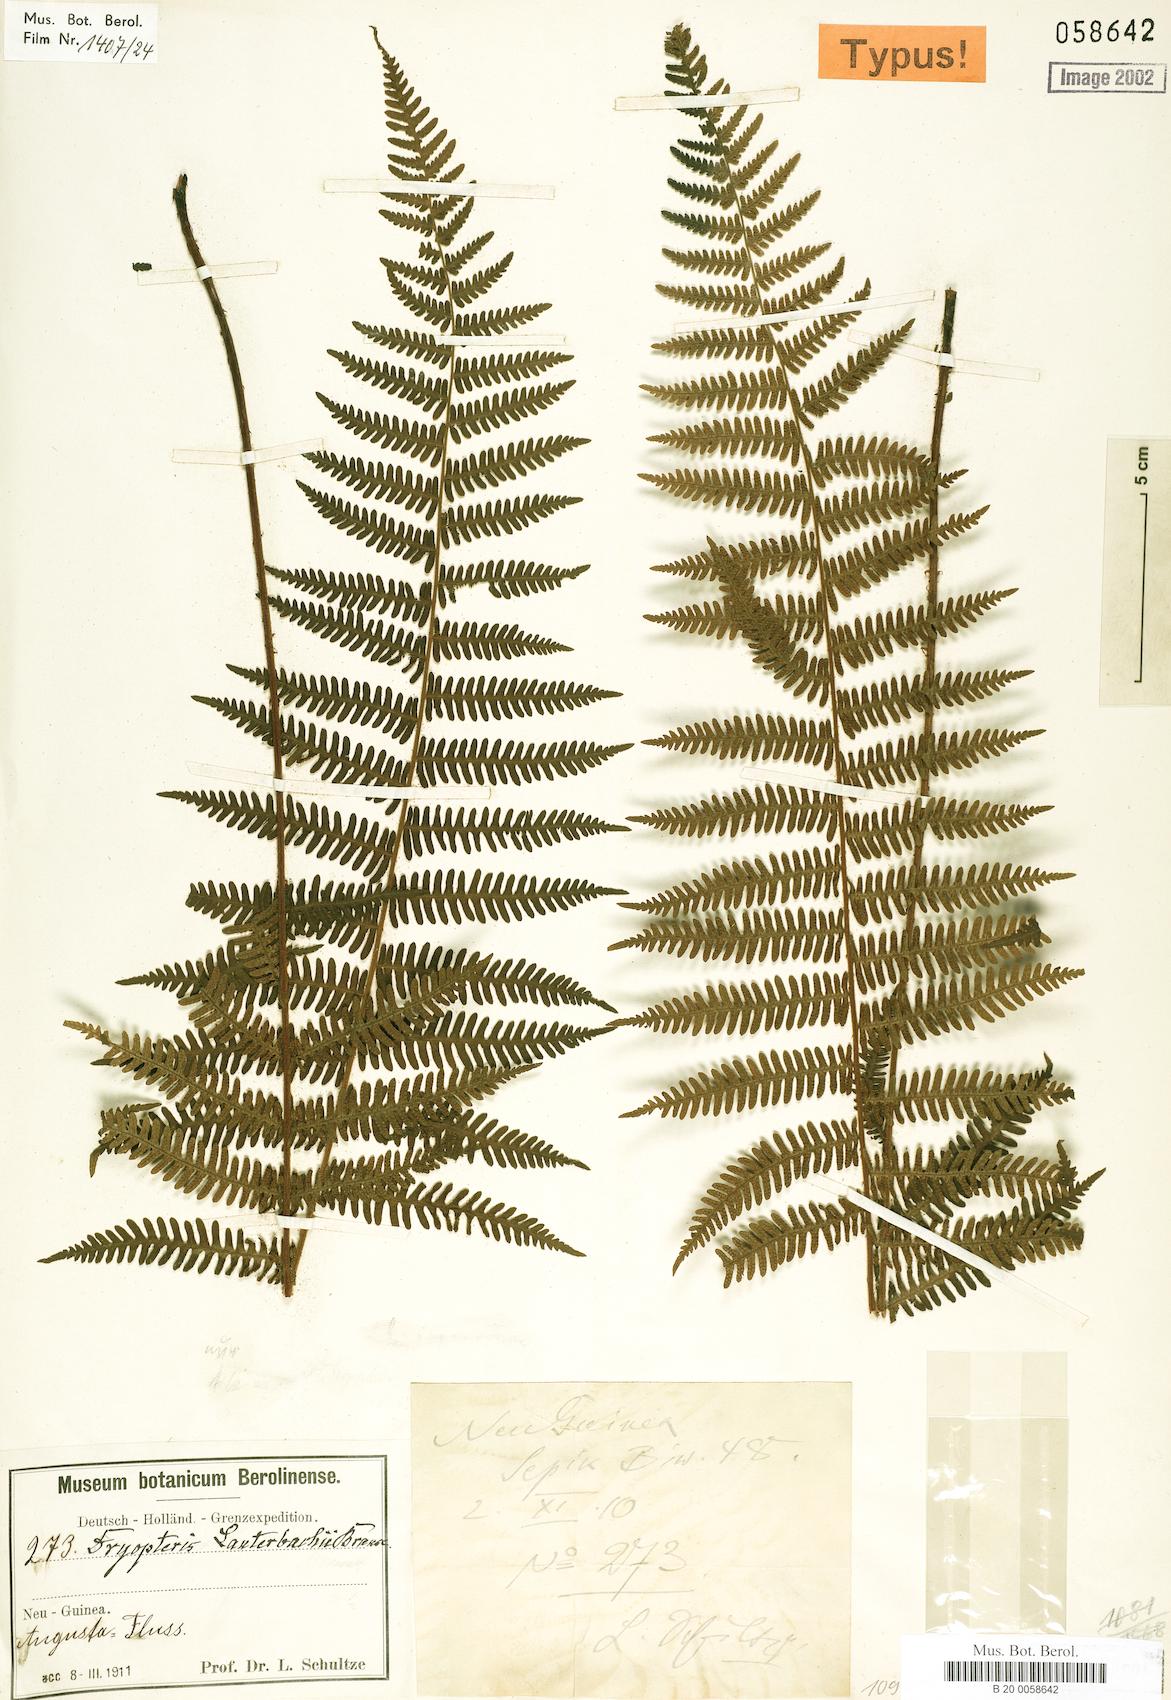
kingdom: Plantae
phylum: Tracheophyta
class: Polypodiopsida
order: Polypodiales
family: Thelypteridaceae
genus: Coryphopteris
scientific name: Coryphopteris lauterbachii
